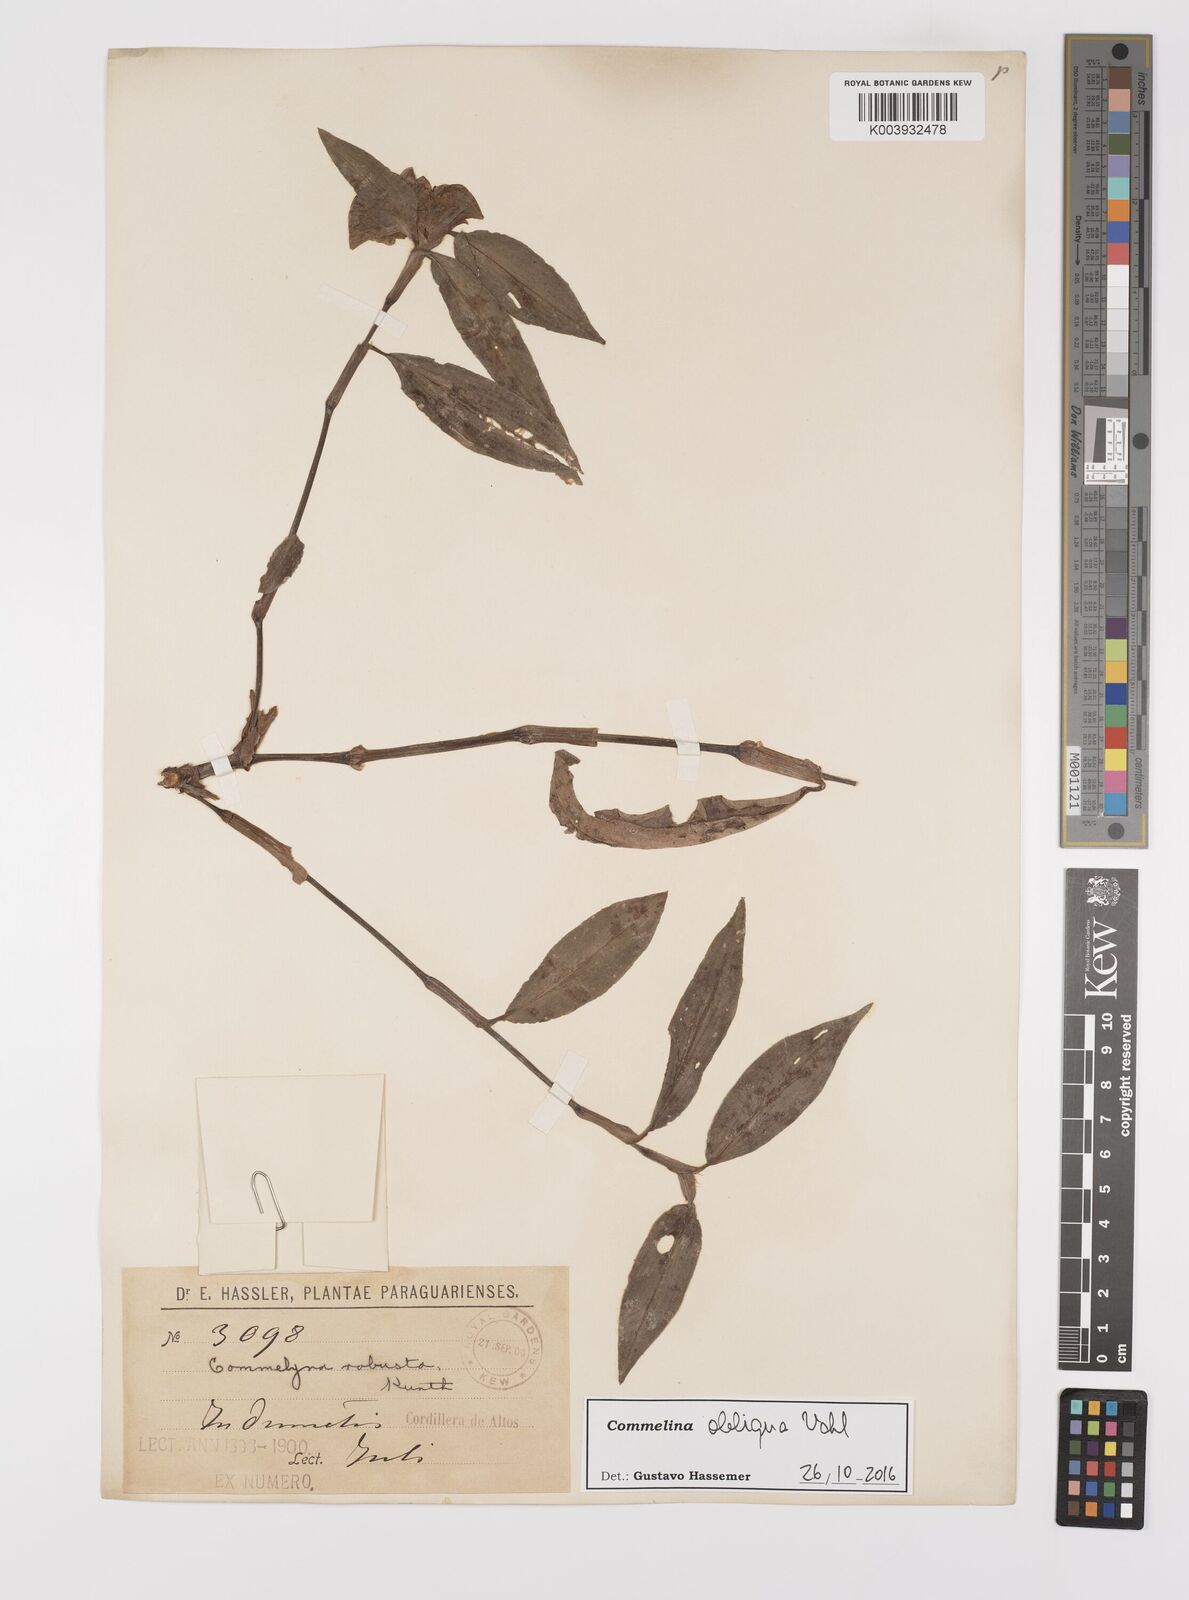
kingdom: Plantae
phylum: Tracheophyta
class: Liliopsida
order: Commelinales
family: Commelinaceae
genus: Commelina
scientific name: Commelina obliqua
